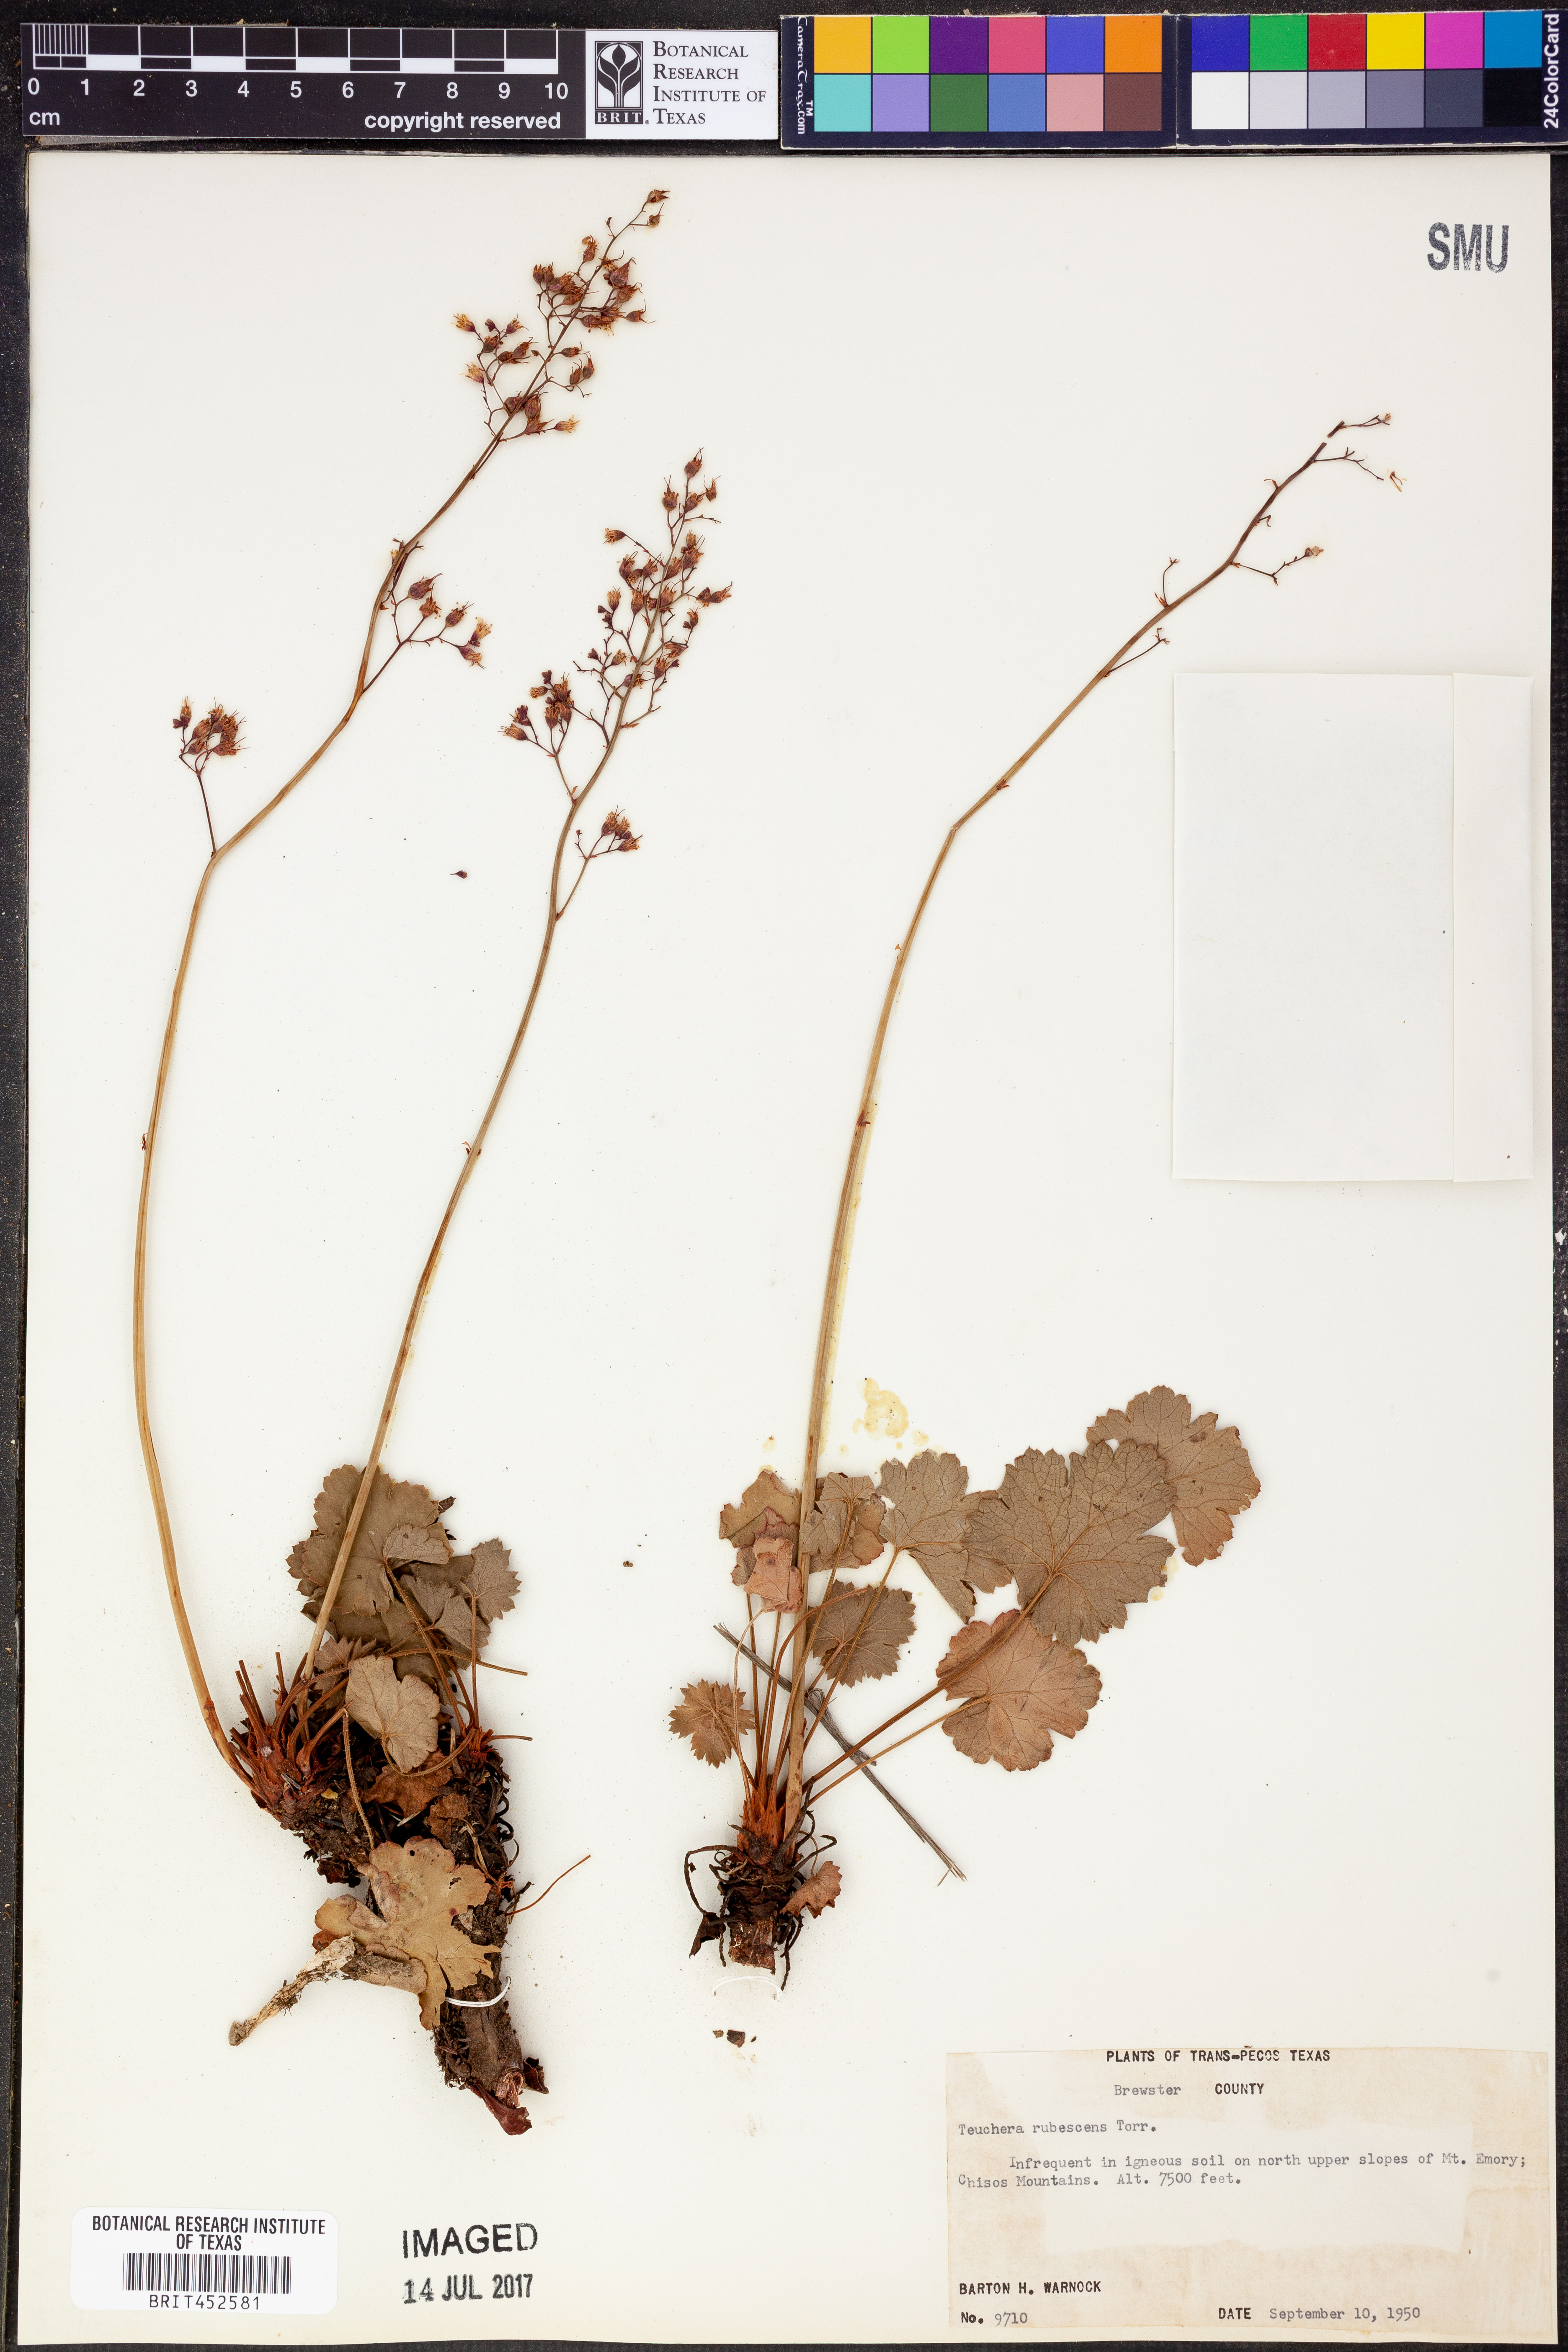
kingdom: Plantae
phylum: Tracheophyta
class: Magnoliopsida
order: Saxifragales
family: Saxifragaceae
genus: Heuchera
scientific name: Heuchera rubescens
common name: Jack-o'the-rocks
